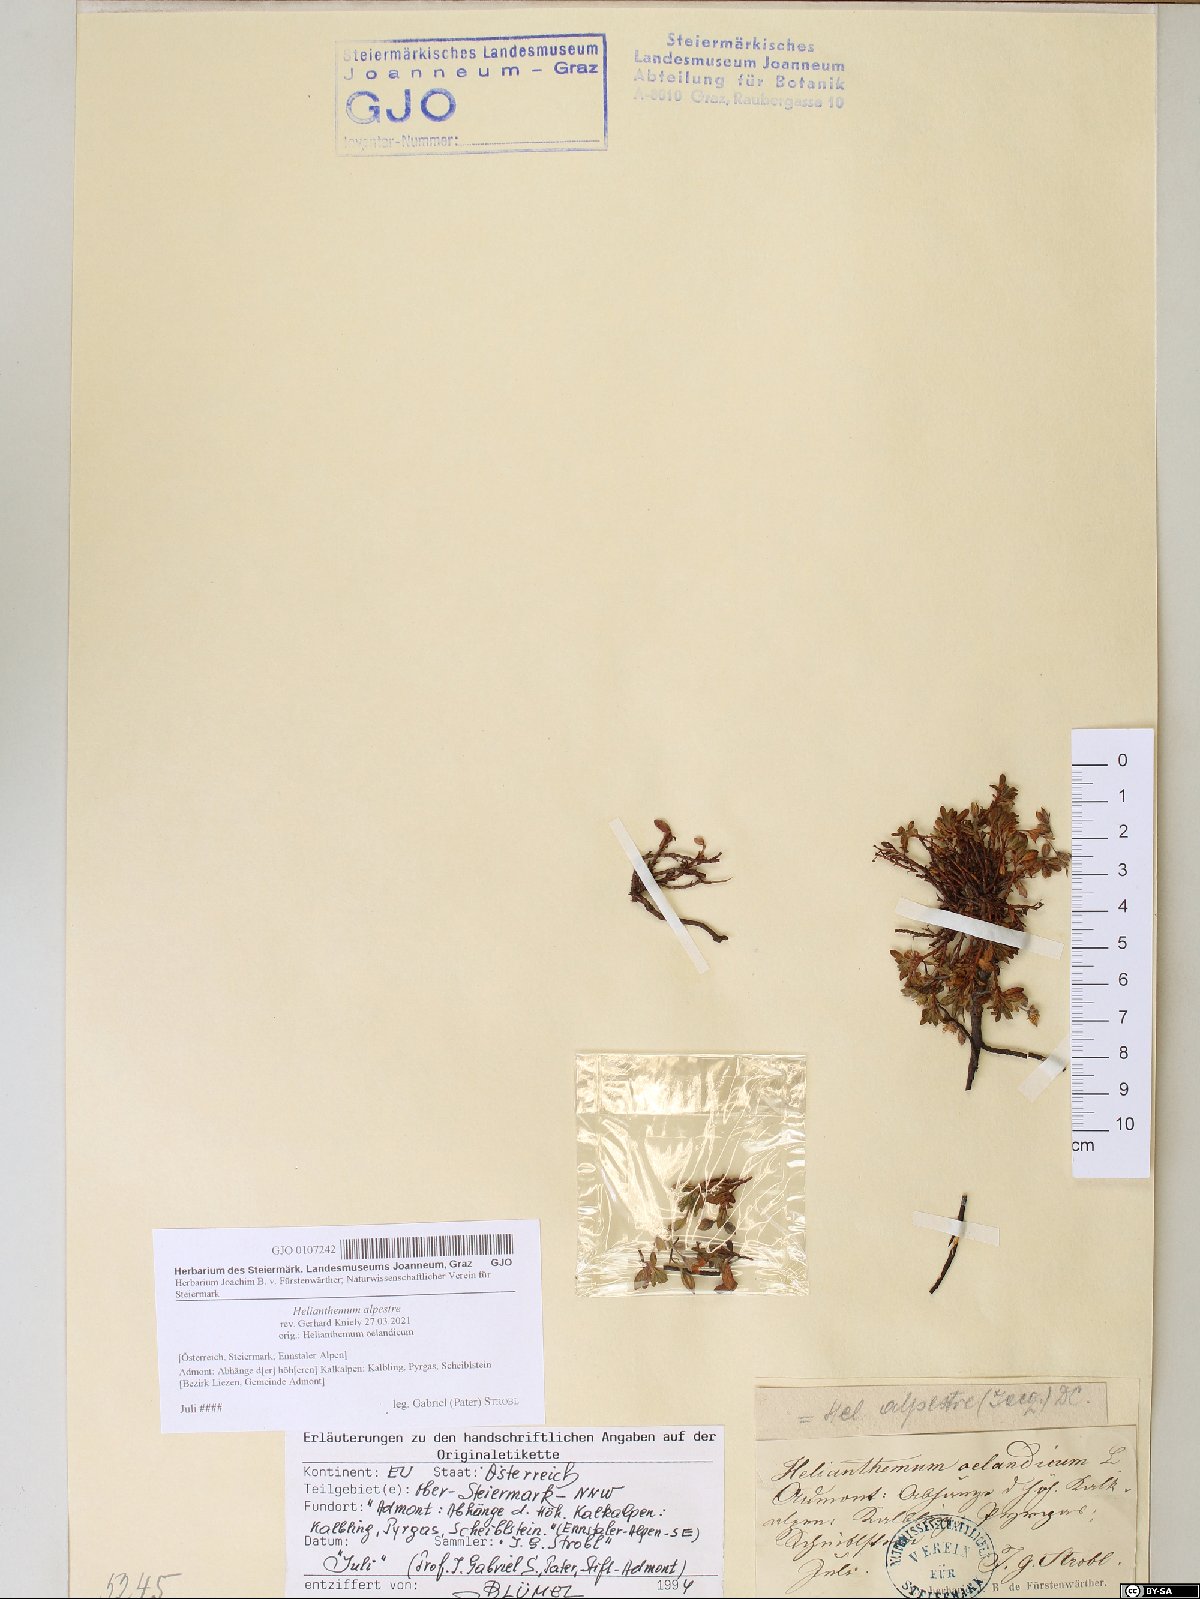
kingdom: Plantae
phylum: Tracheophyta
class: Magnoliopsida
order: Malvales
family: Cistaceae
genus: Helianthemum
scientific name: Helianthemum alpestre
